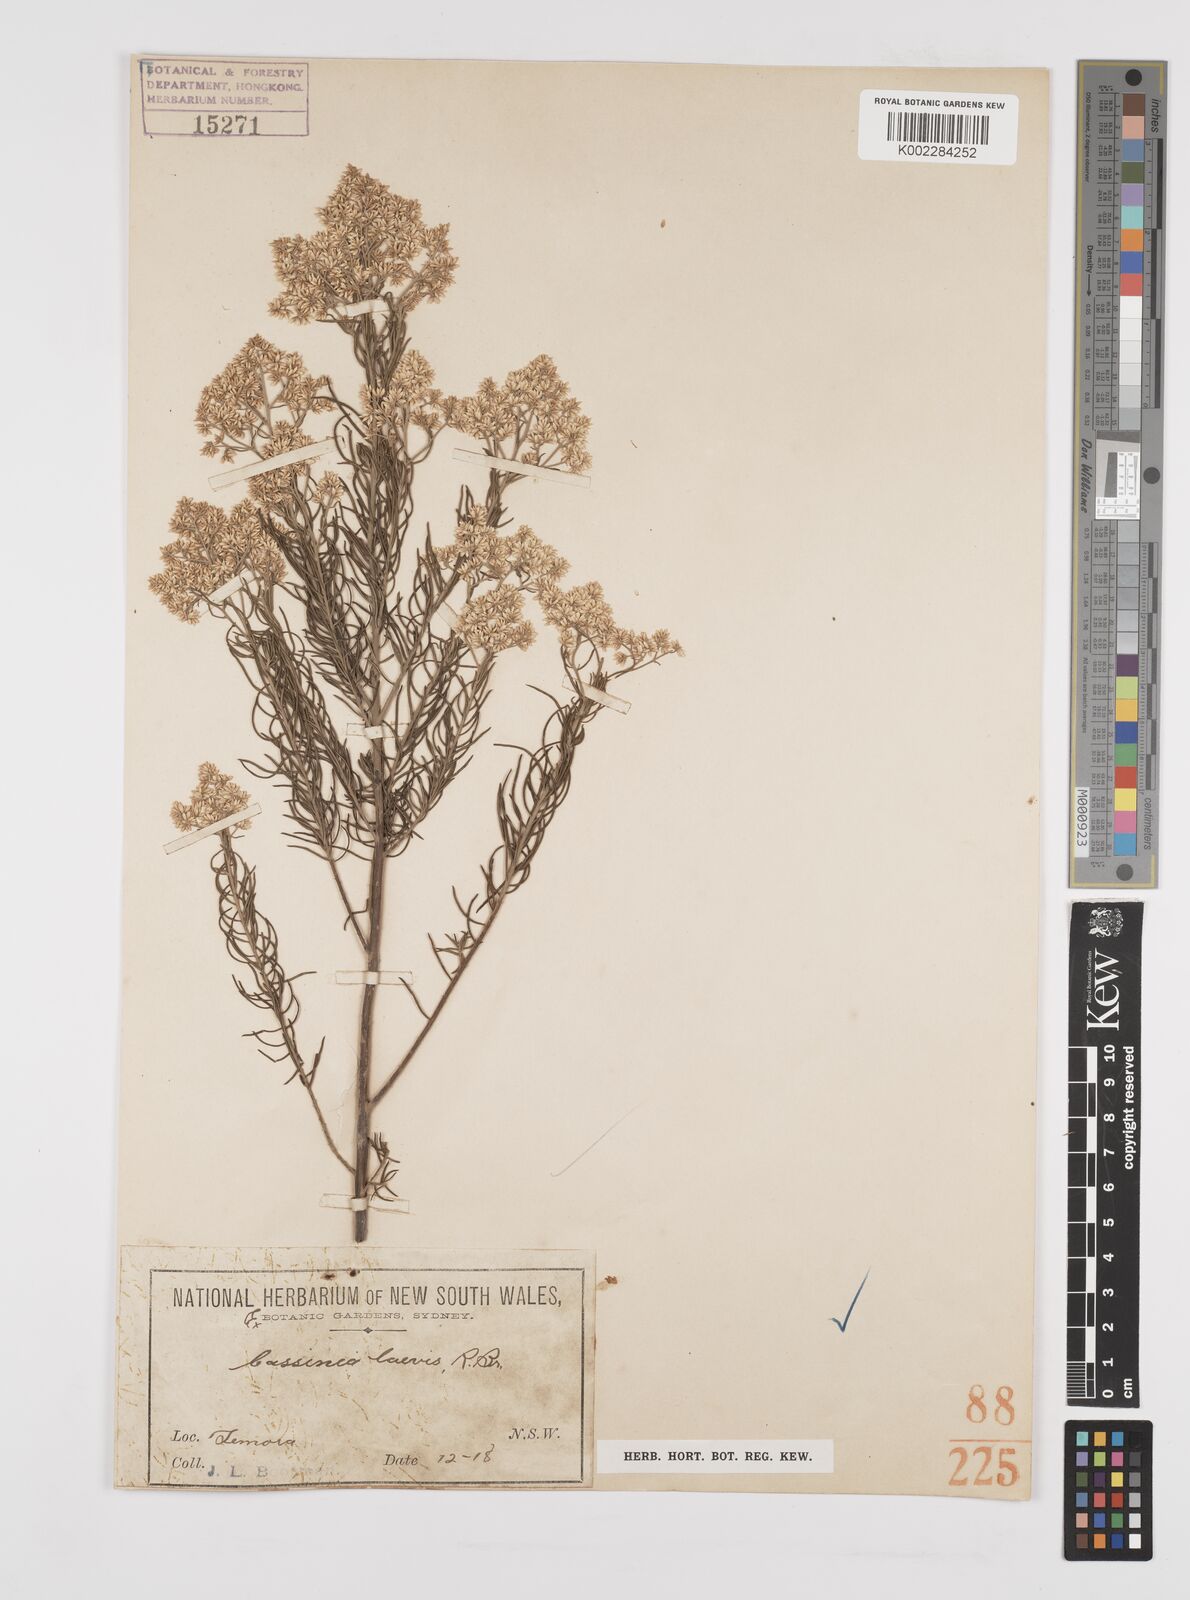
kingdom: Plantae
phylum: Tracheophyta
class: Magnoliopsida
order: Asterales
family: Asteraceae
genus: Cassinia
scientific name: Cassinia laevis
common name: Coughbush
